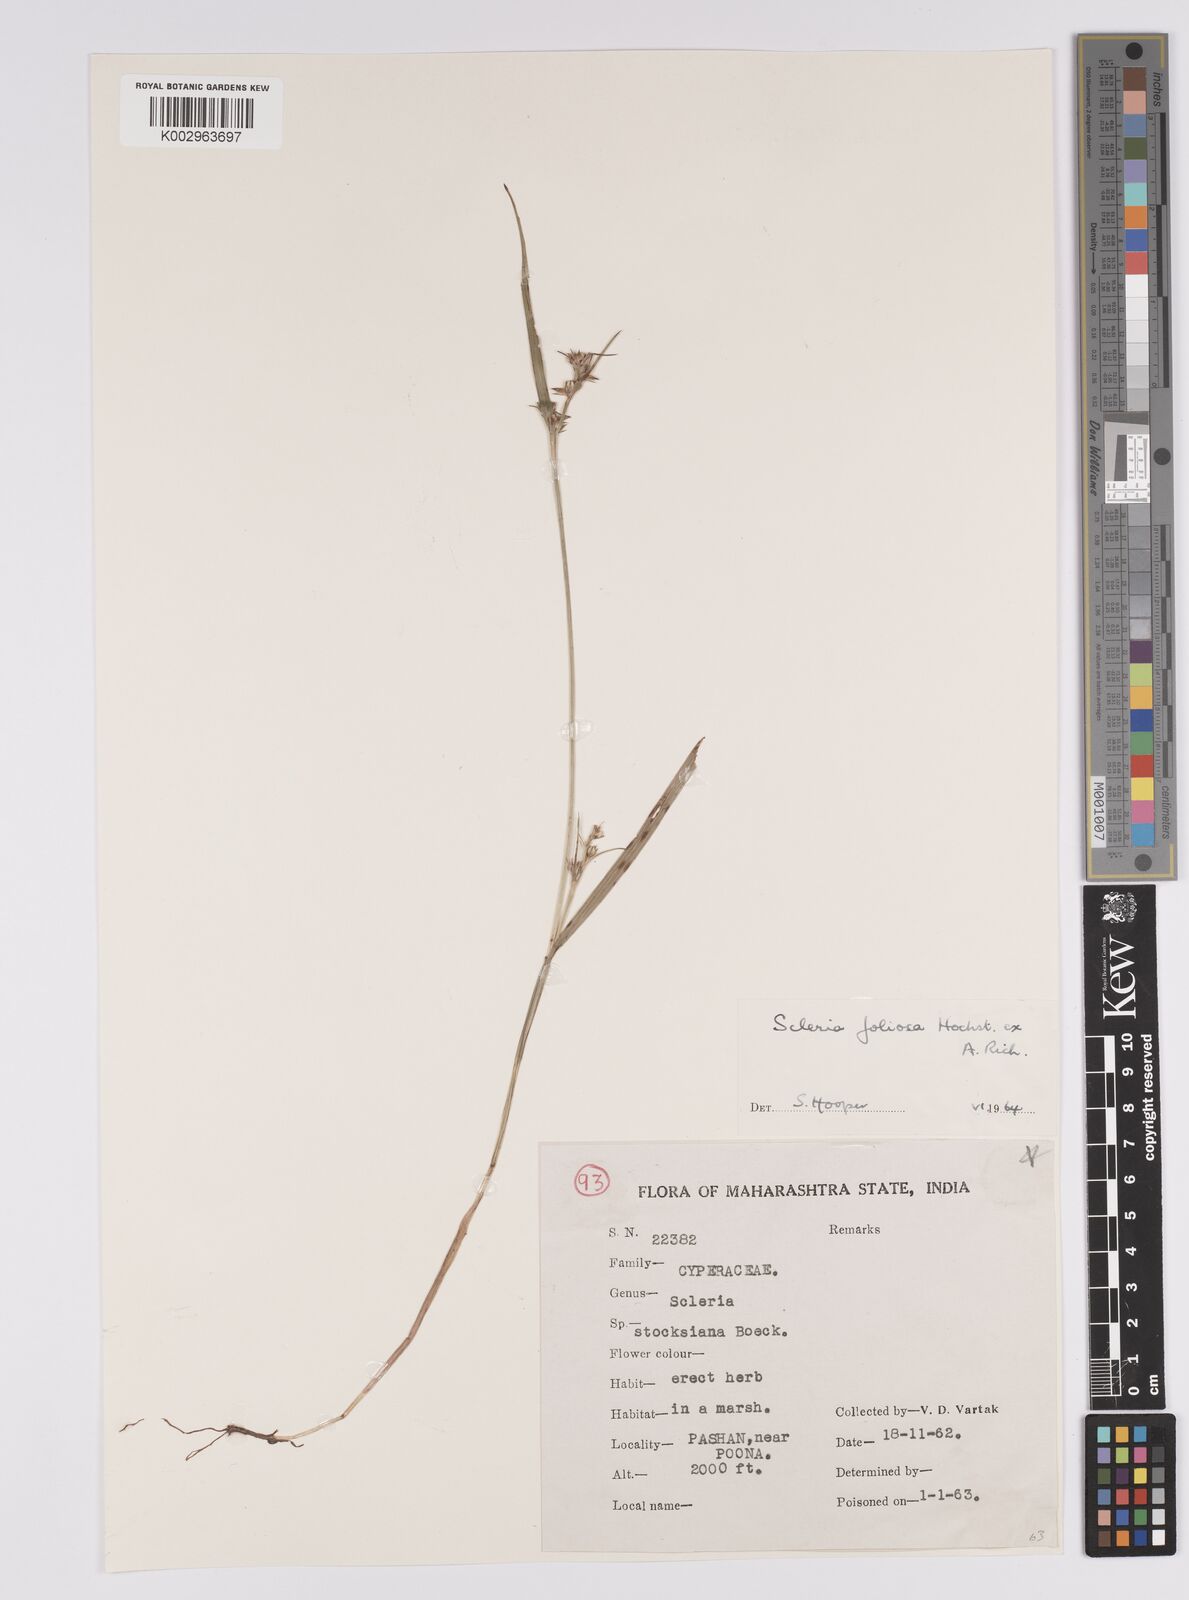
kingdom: Plantae
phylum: Tracheophyta
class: Liliopsida
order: Poales
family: Cyperaceae
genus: Scleria
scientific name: Scleria foliosa
